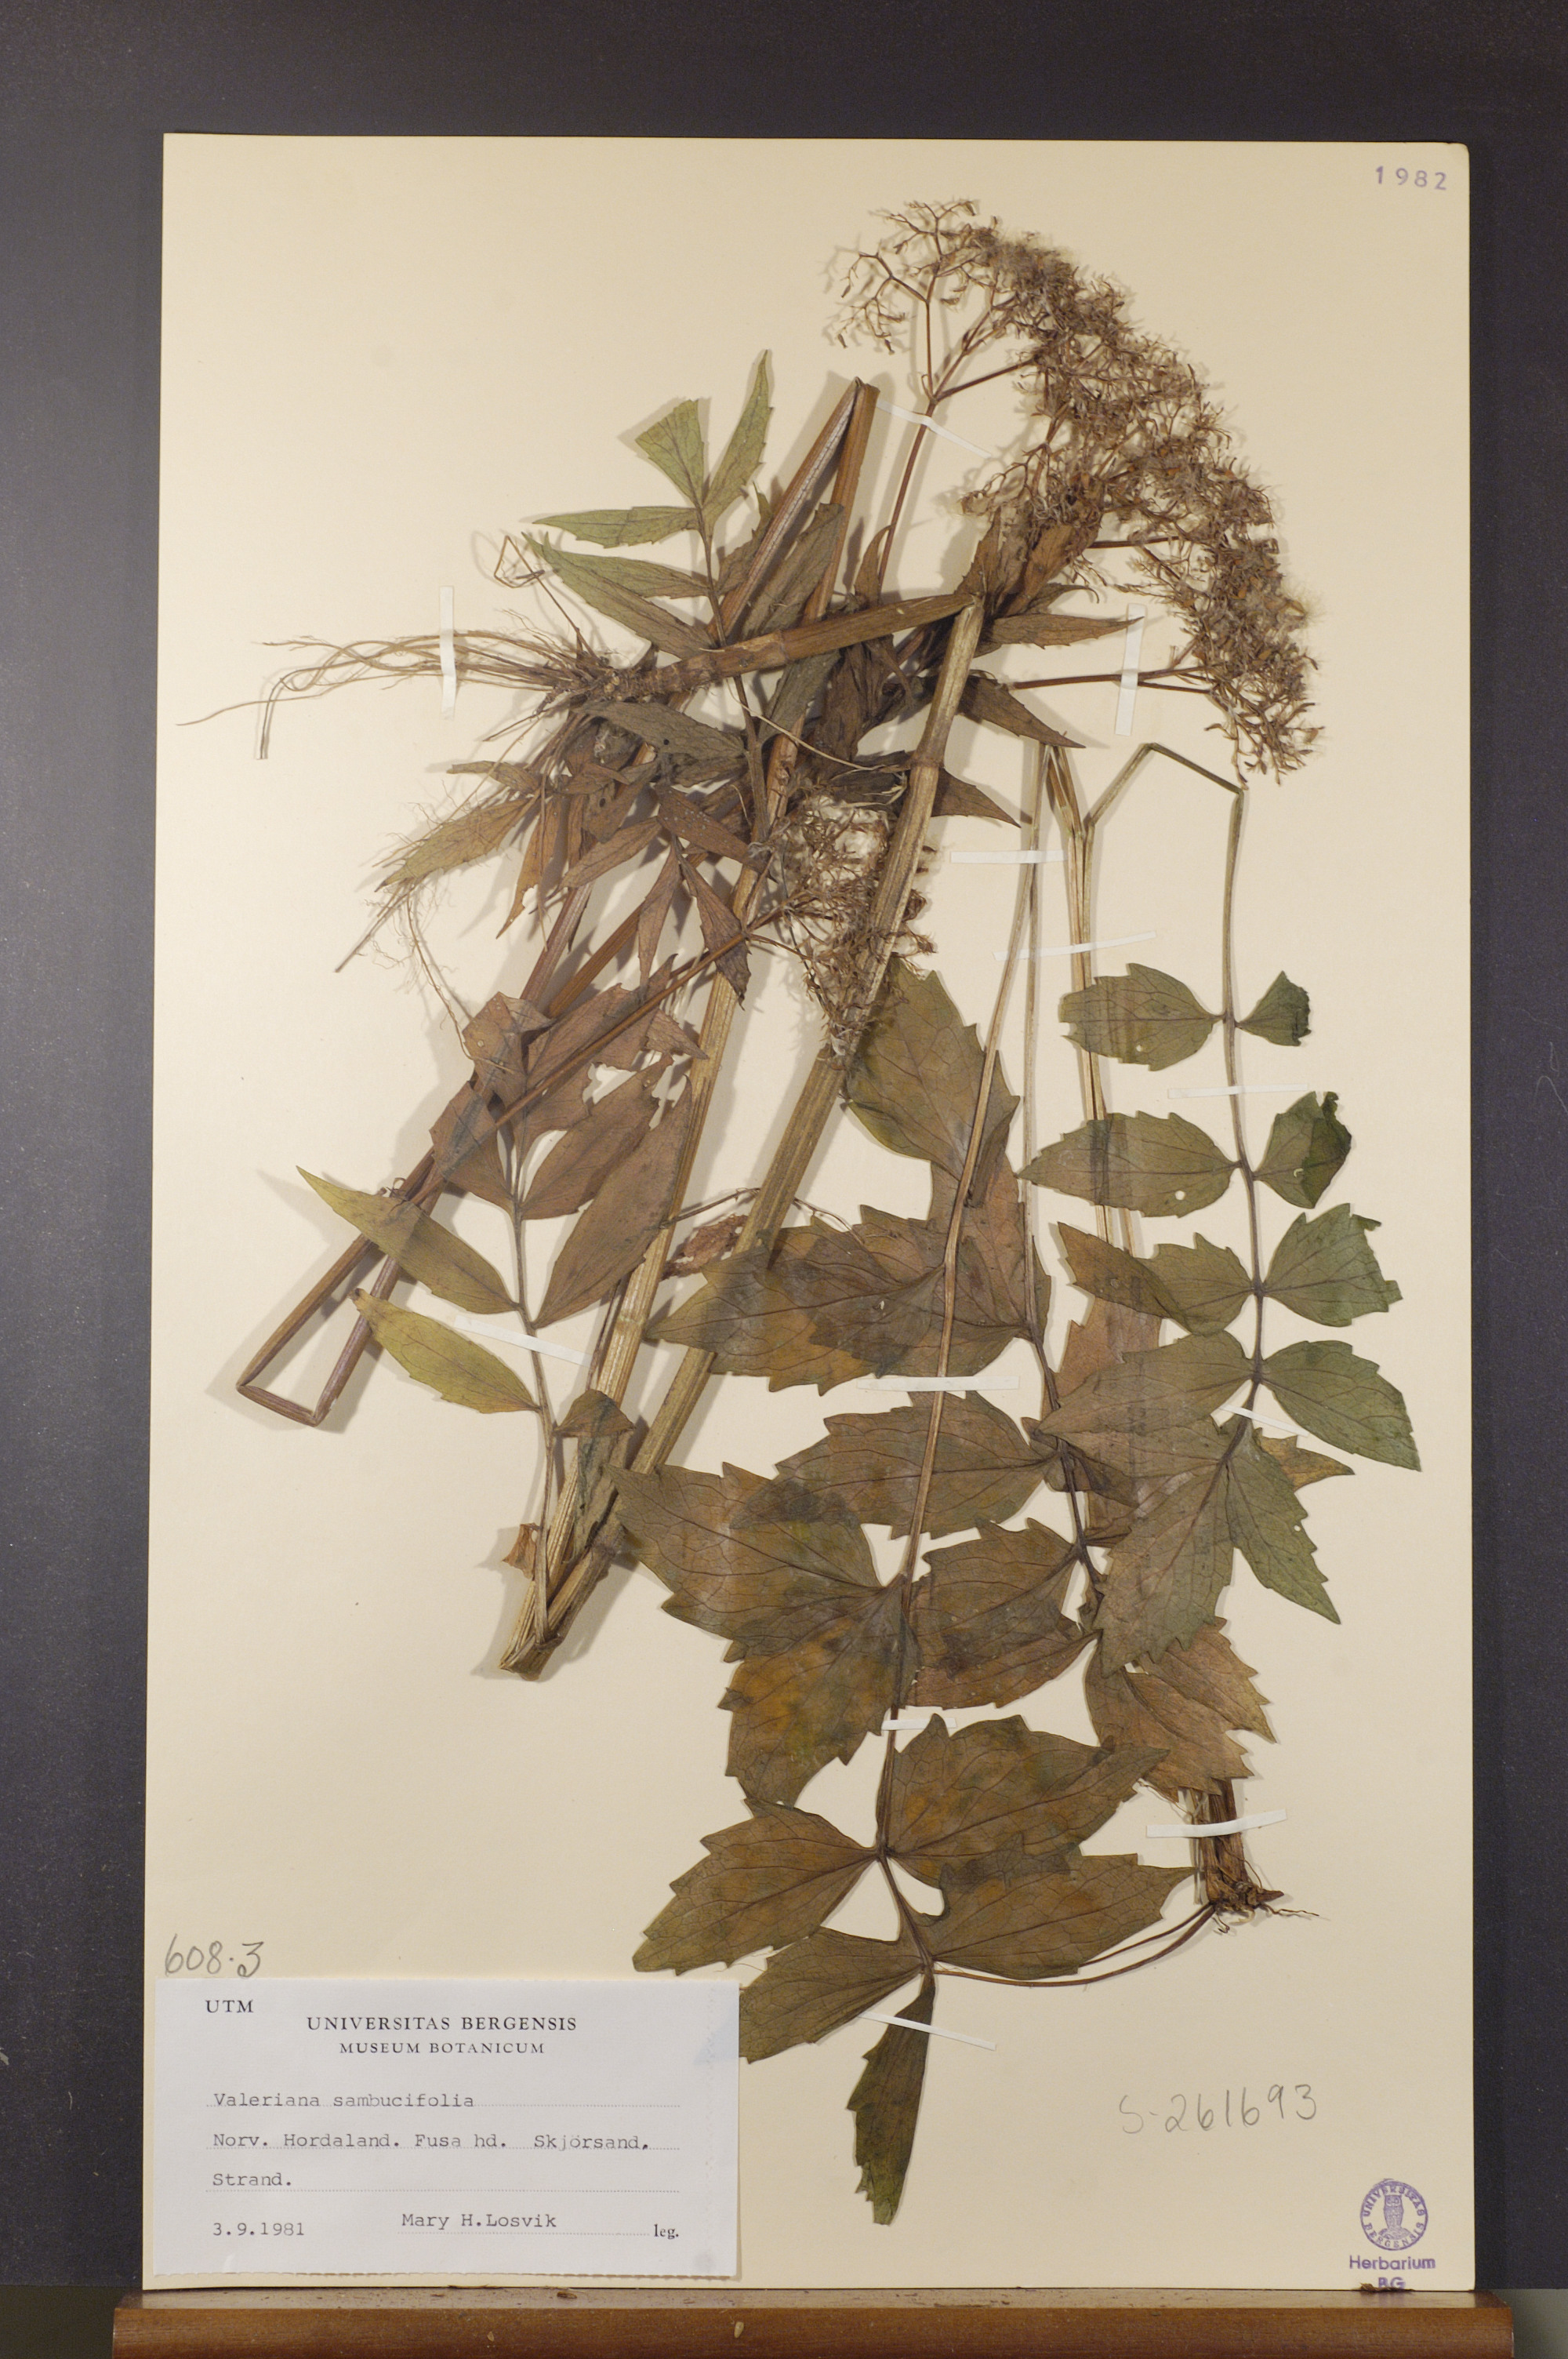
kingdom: Plantae
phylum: Tracheophyta
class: Magnoliopsida
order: Dipsacales
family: Caprifoliaceae
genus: Valeriana
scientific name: Valeriana excelsa
